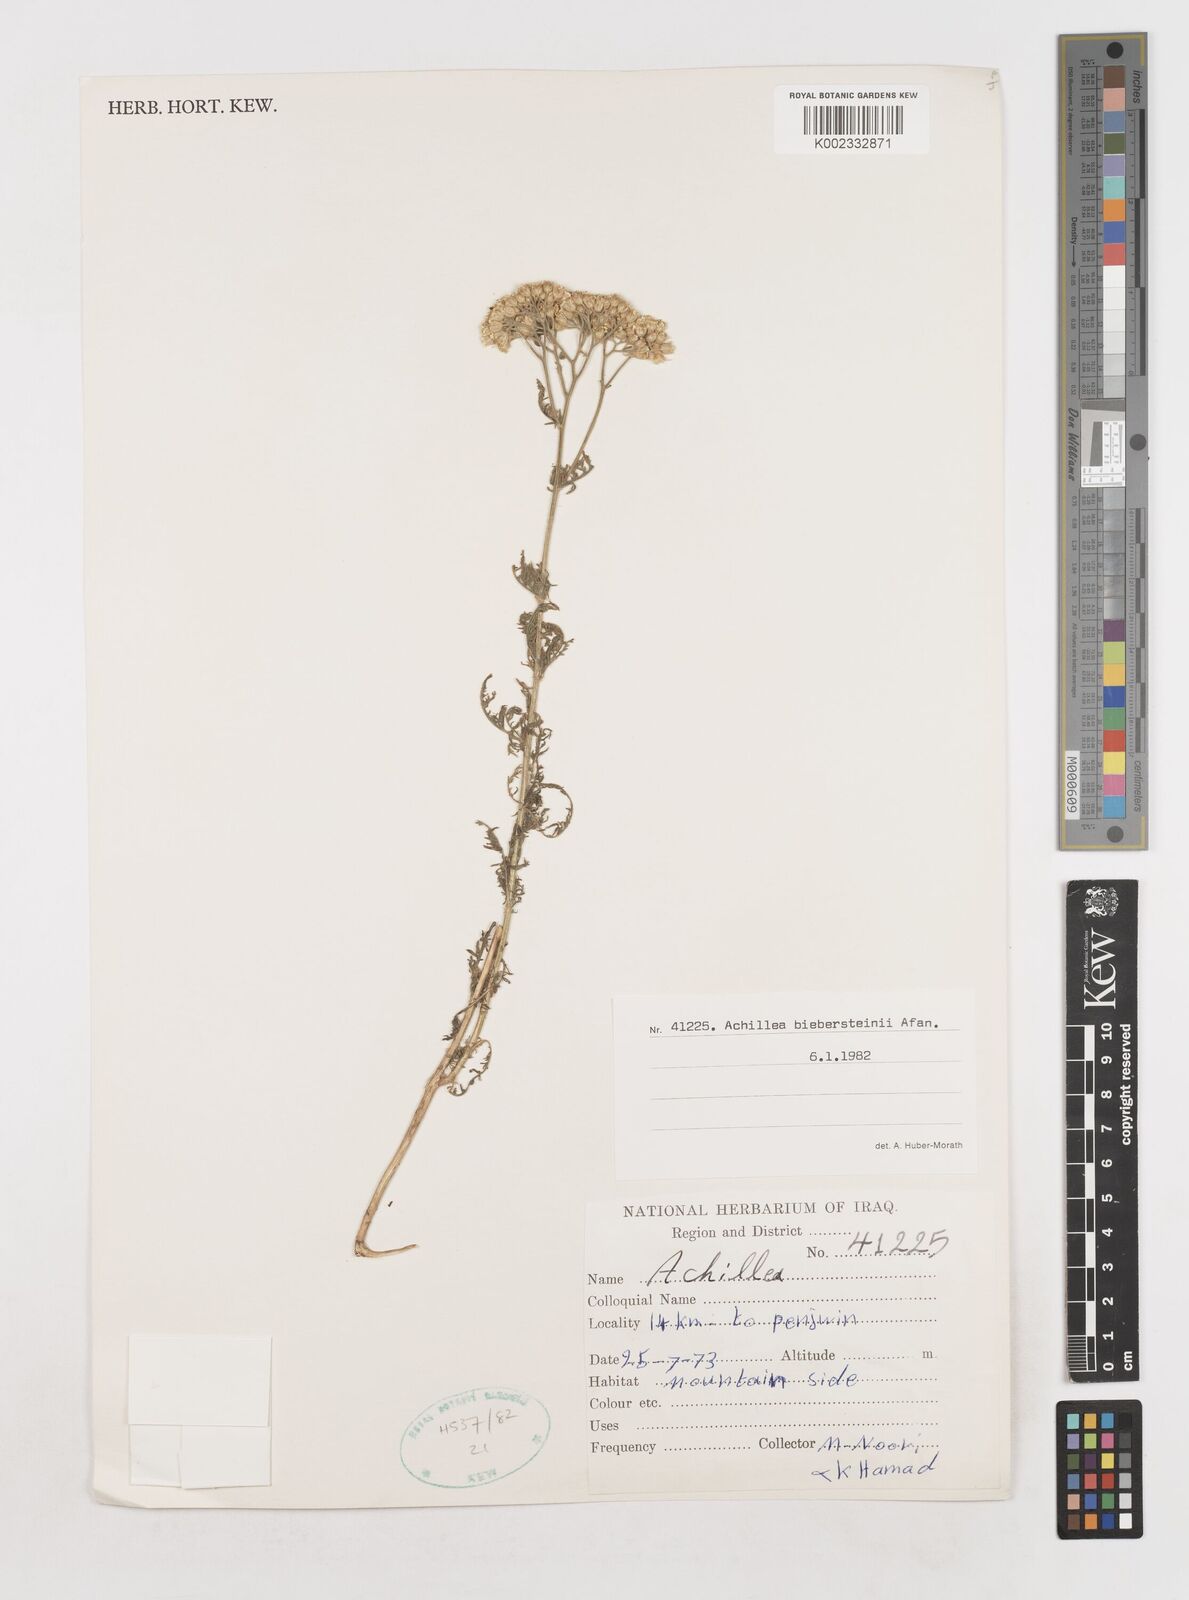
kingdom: Plantae
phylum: Tracheophyta
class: Magnoliopsida
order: Asterales
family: Asteraceae
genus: Achillea
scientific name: Achillea arabica
